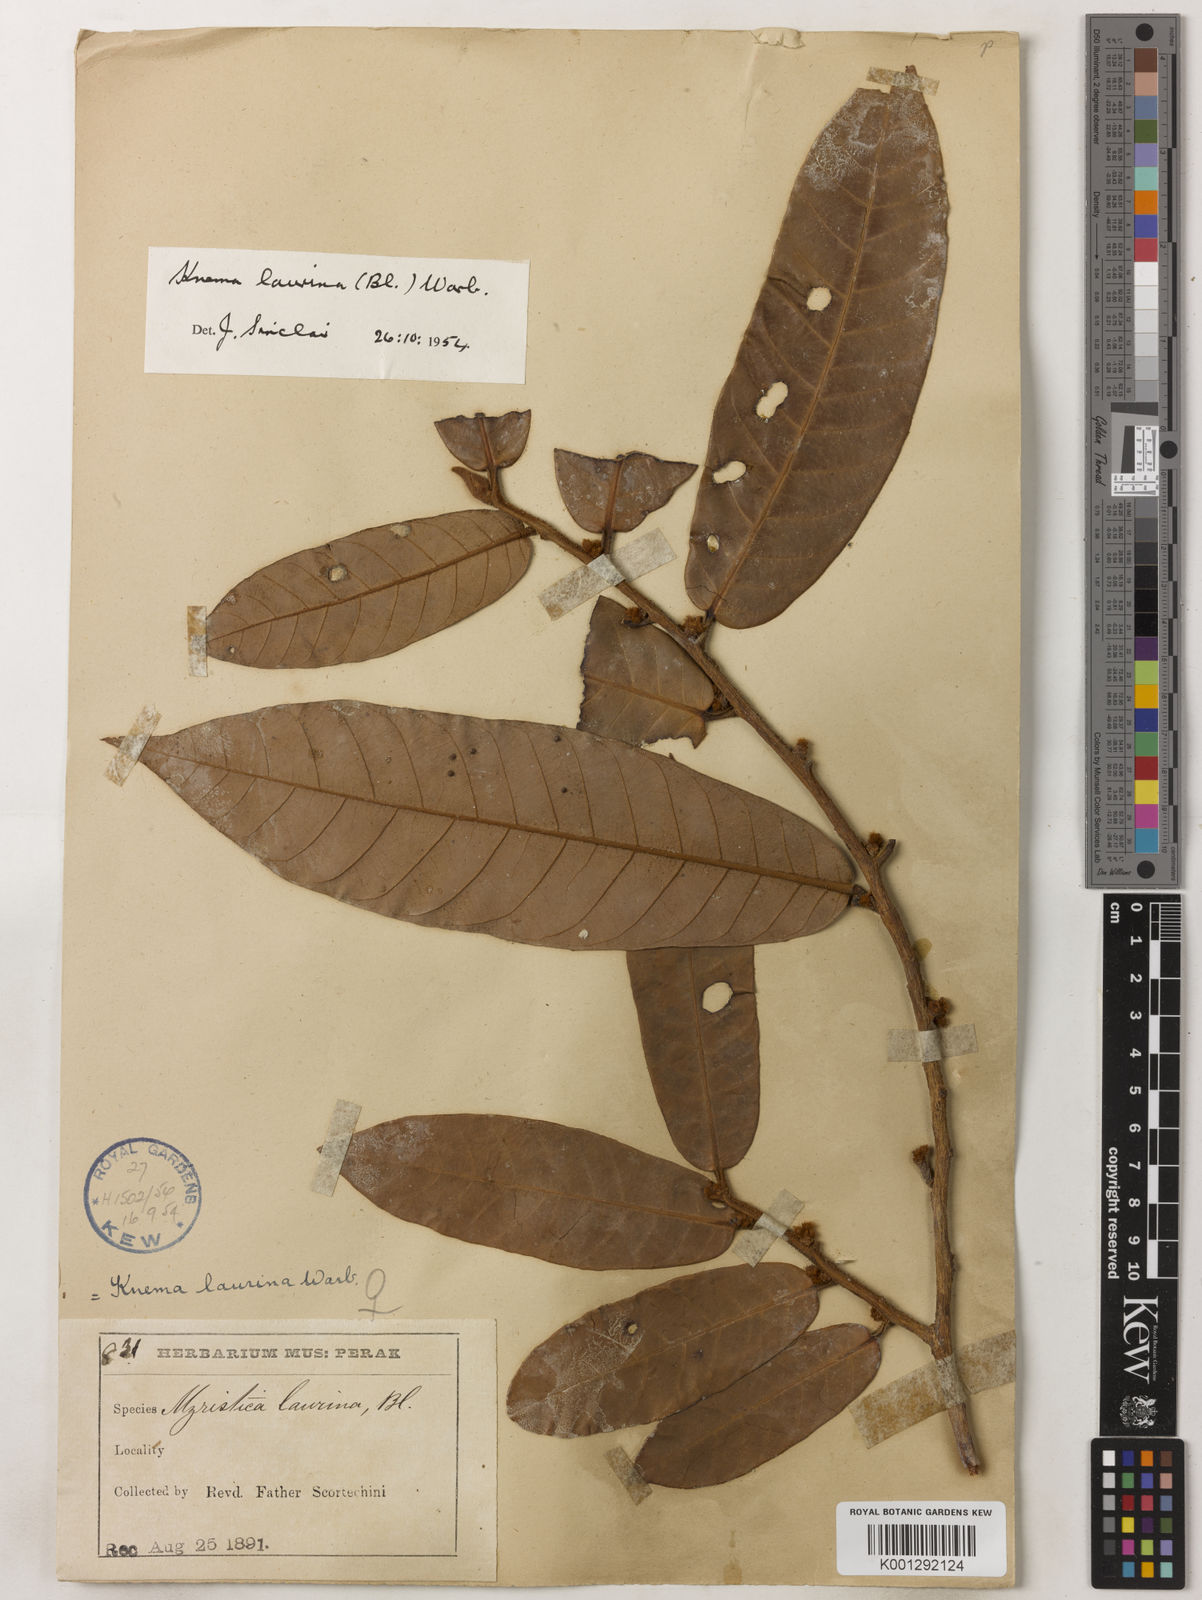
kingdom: Plantae
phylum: Tracheophyta
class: Magnoliopsida
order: Magnoliales
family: Myristicaceae
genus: Knema
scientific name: Knema laurina
